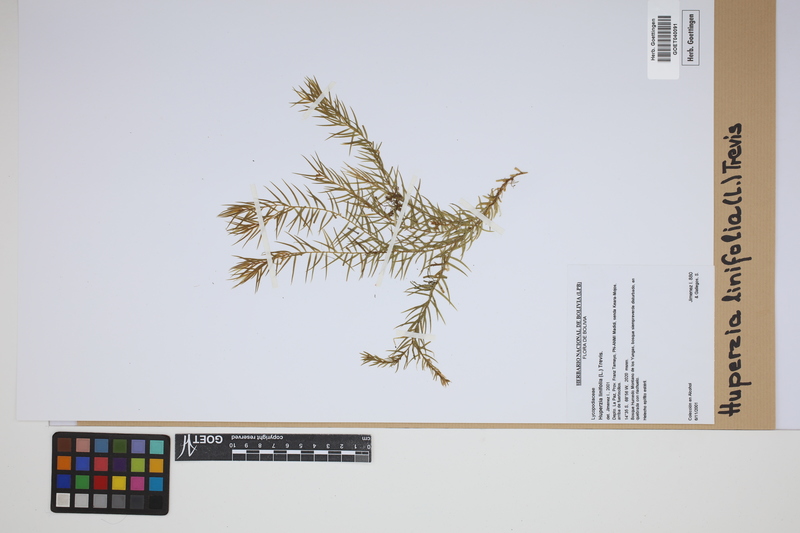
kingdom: Plantae
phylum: Tracheophyta
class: Lycopodiopsida
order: Lycopodiales
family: Lycopodiaceae
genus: Phlegmariurus
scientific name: Phlegmariurus linifolius
